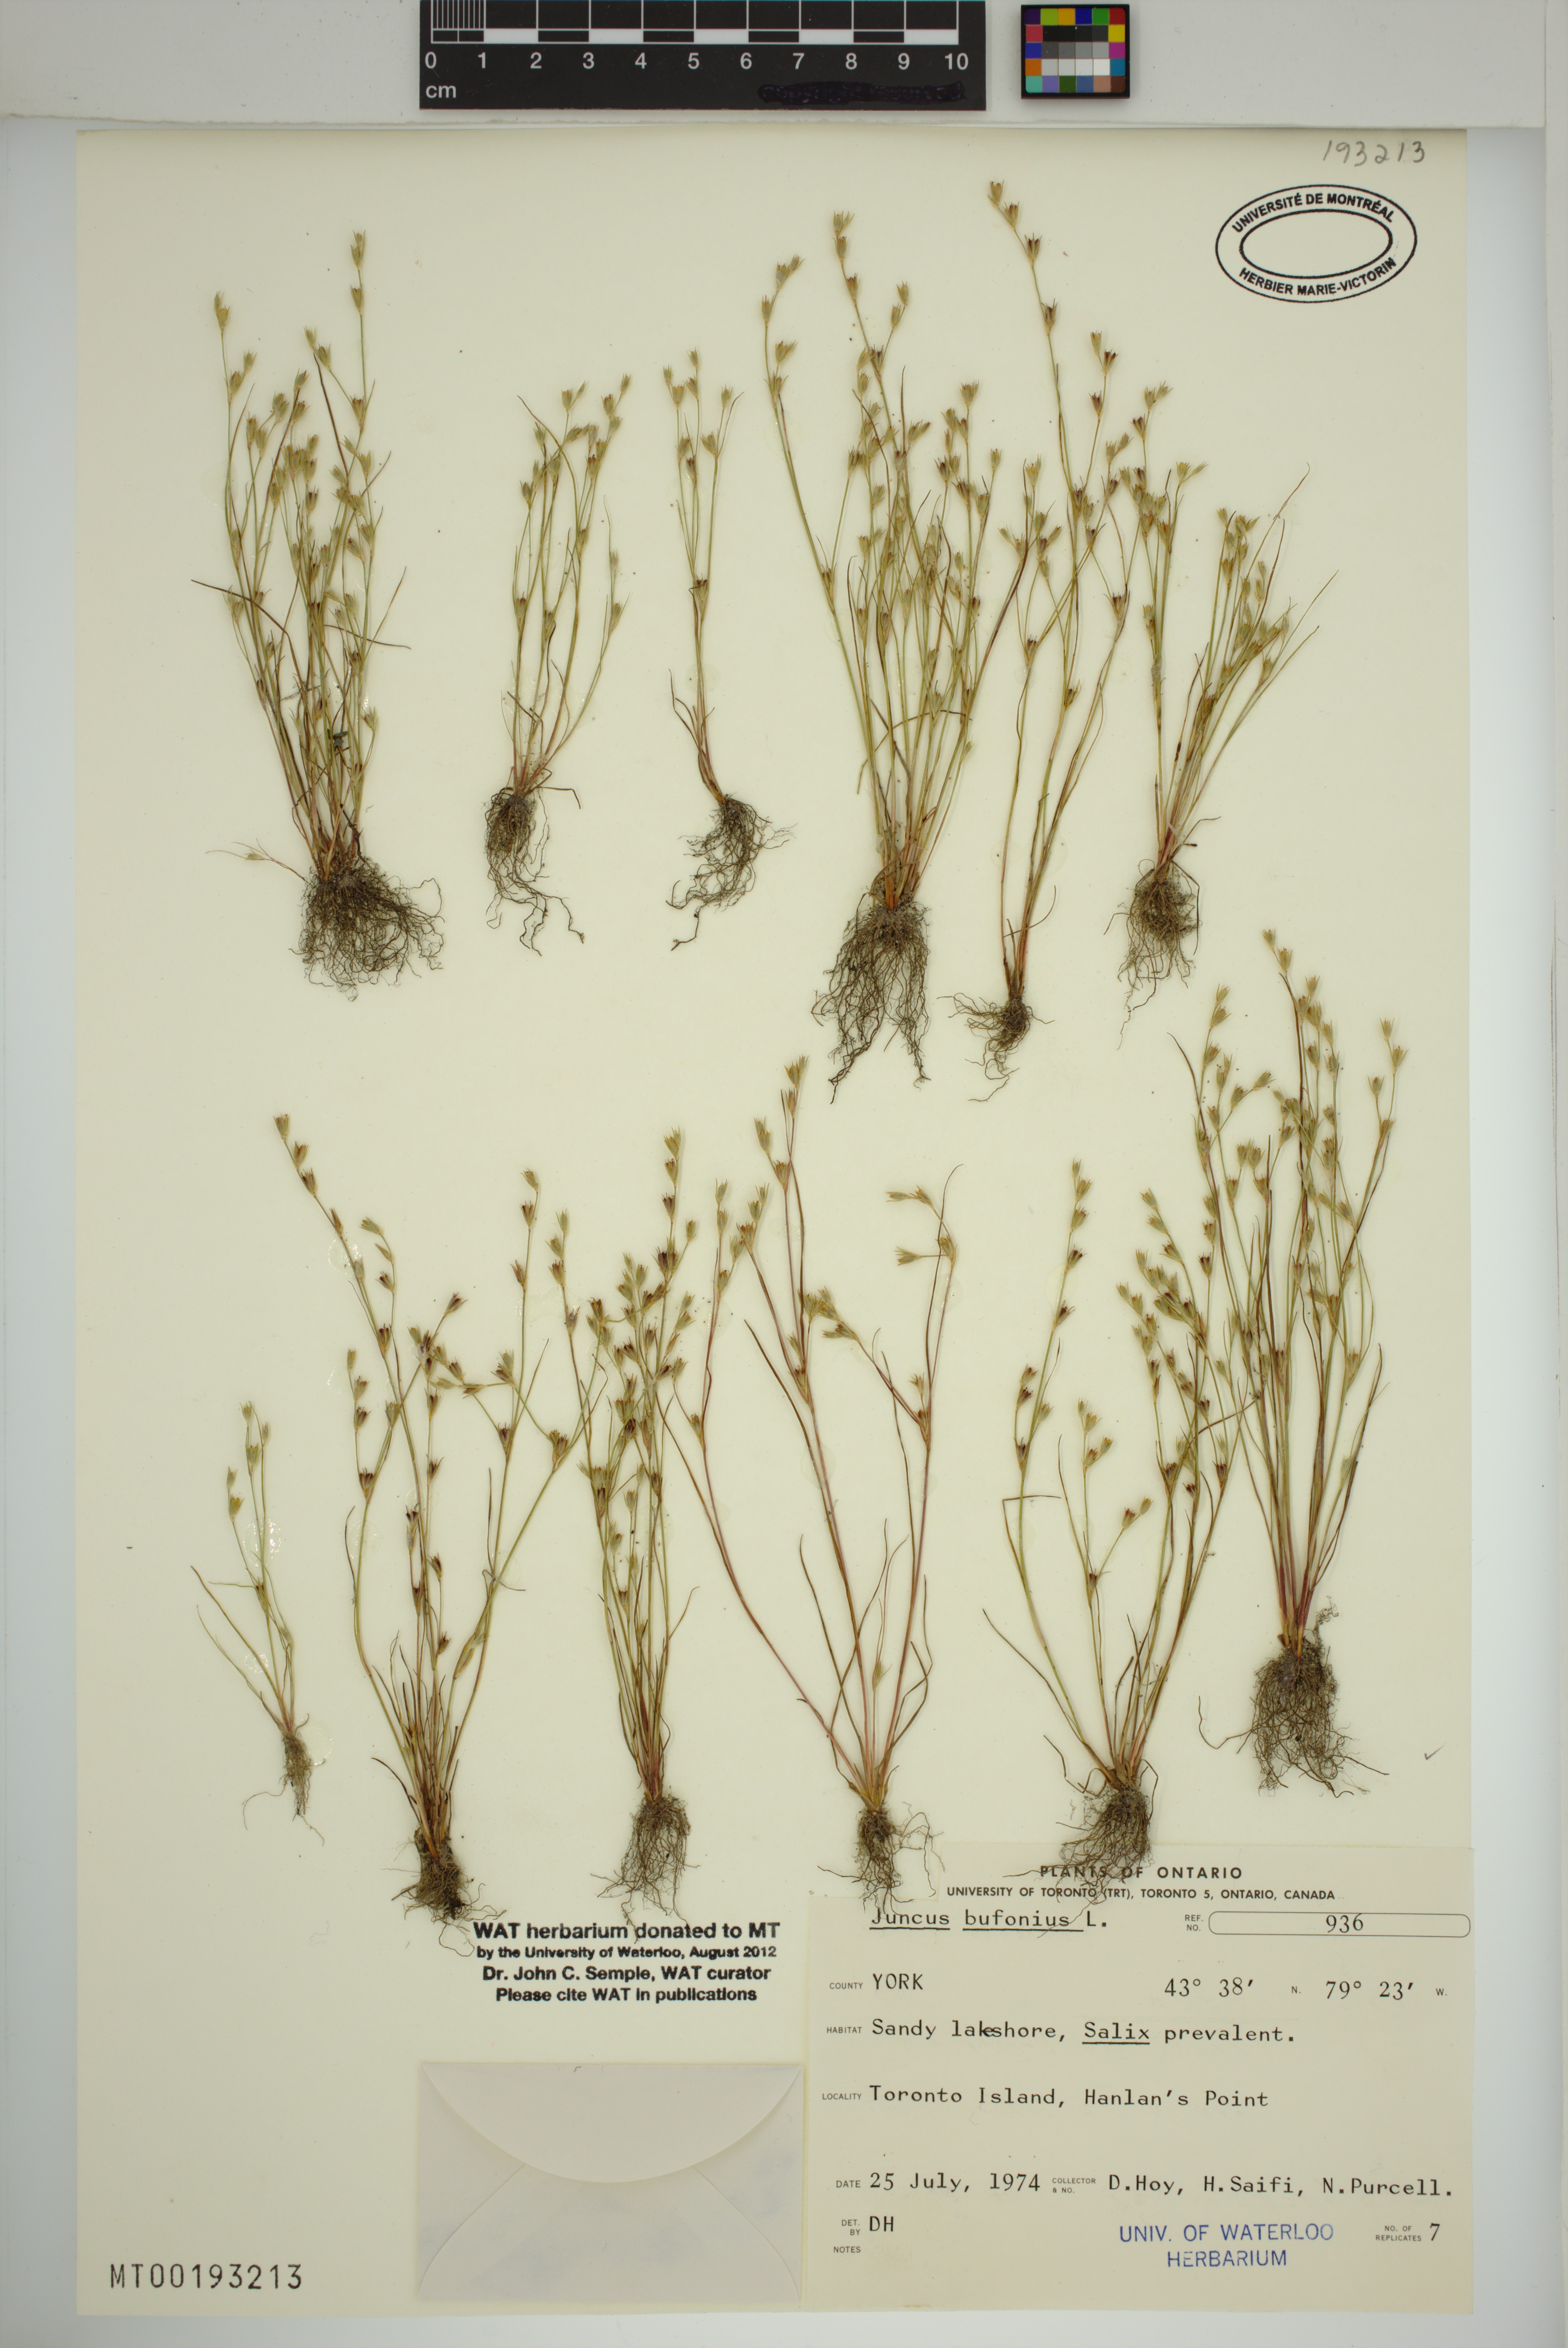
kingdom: Plantae
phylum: Tracheophyta
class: Liliopsida
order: Poales
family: Juncaceae
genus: Juncus
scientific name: Juncus bufonius
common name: Toad rush
